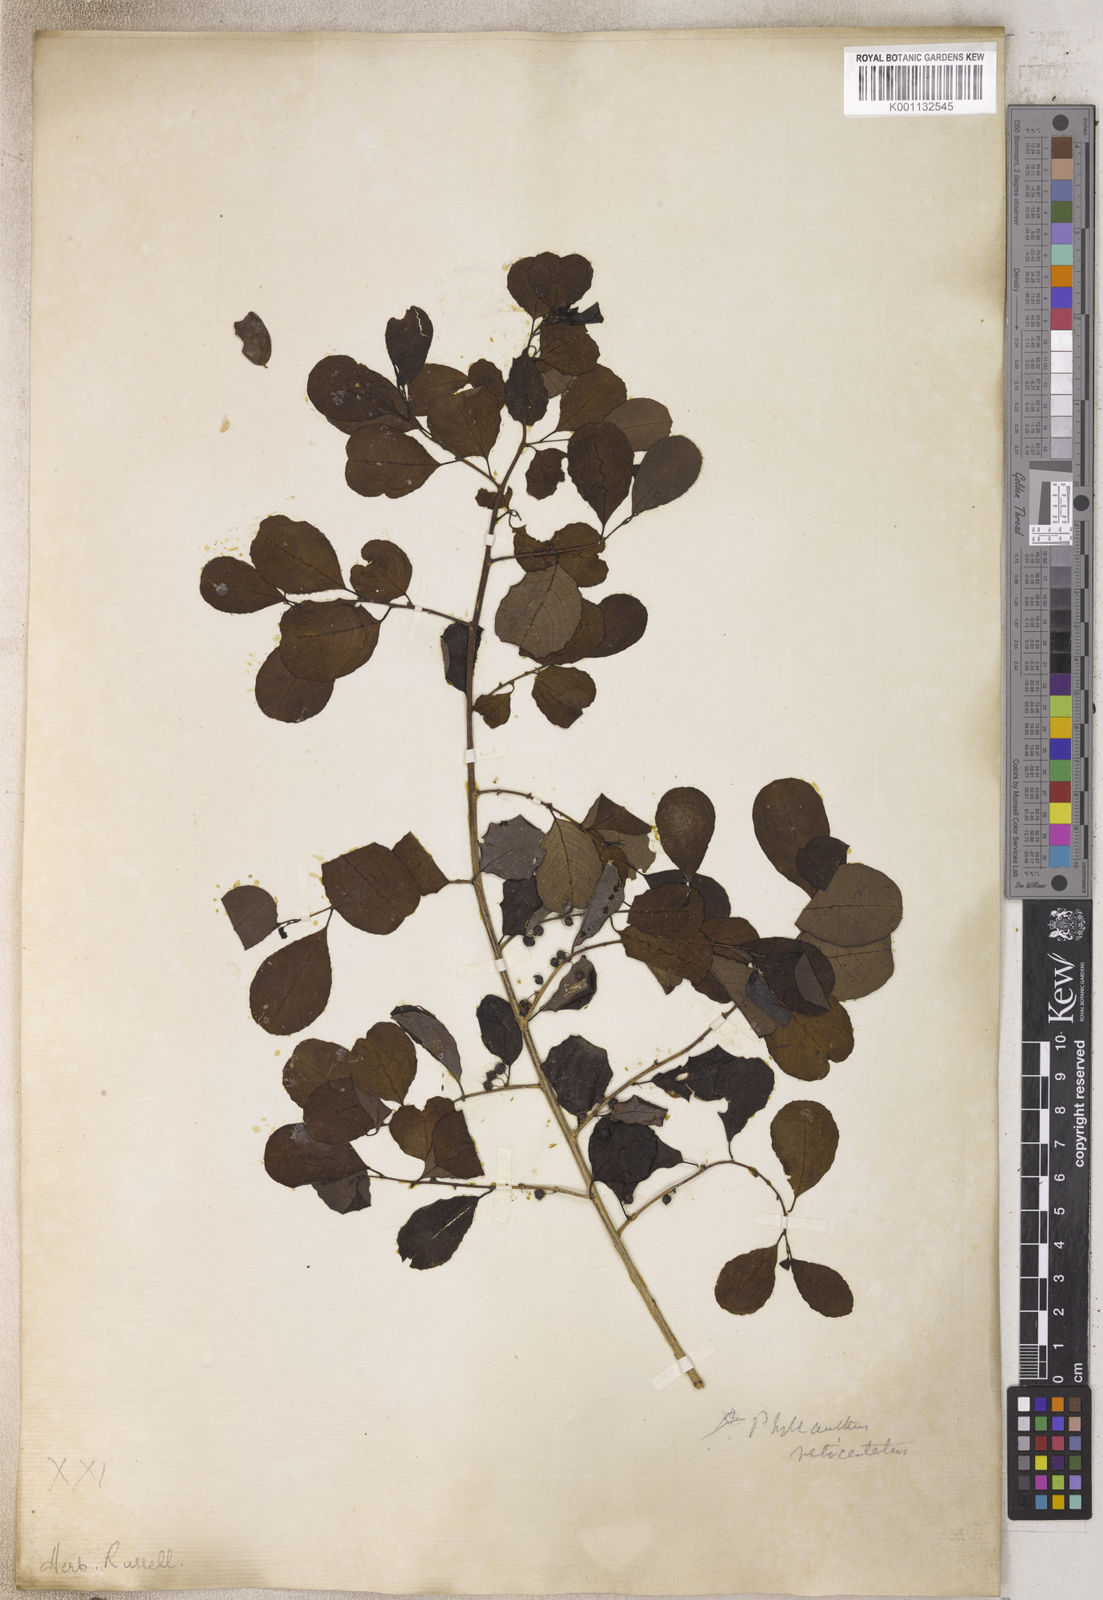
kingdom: Plantae
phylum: Tracheophyta
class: Magnoliopsida
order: Malpighiales
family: Phyllanthaceae
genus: Phyllanthus
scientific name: Phyllanthus
